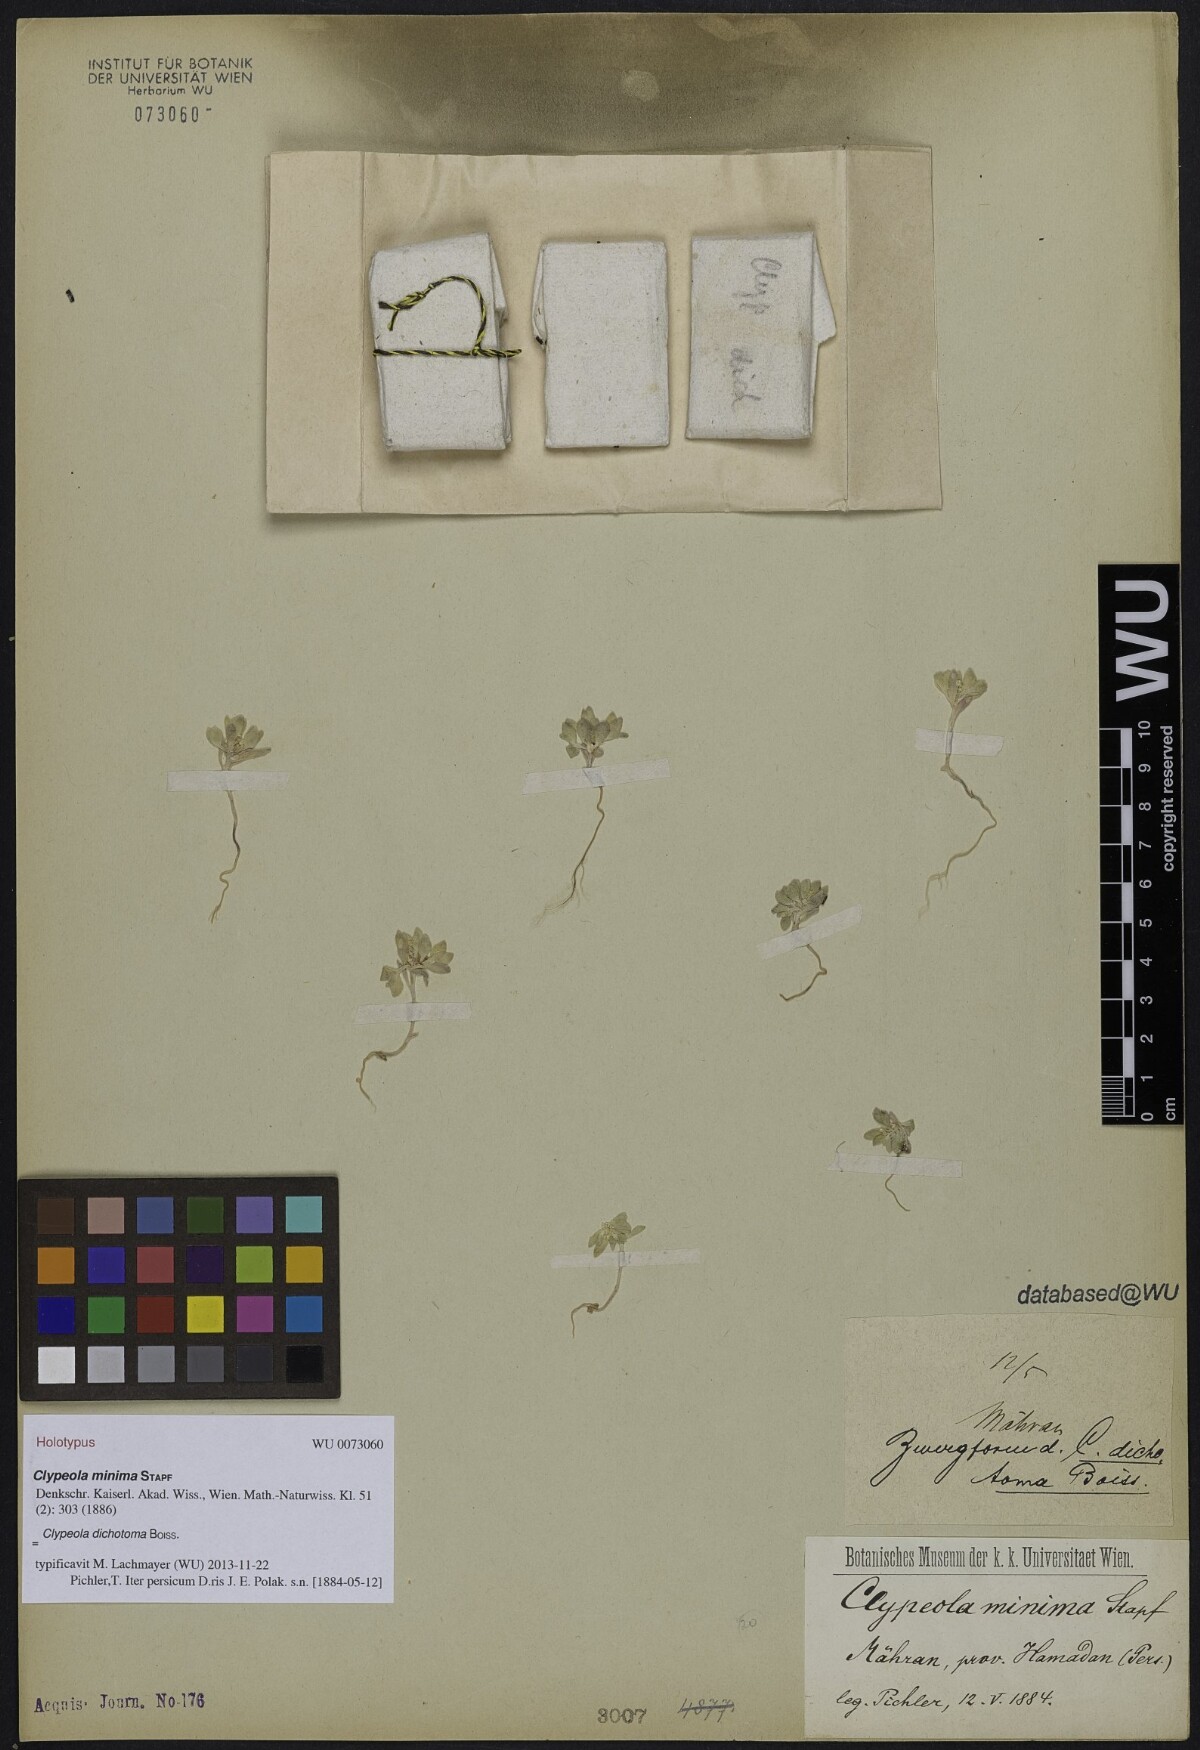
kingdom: Plantae
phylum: Tracheophyta
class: Magnoliopsida
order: Brassicales
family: Brassicaceae
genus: Clypeola
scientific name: Clypeola dichotoma
